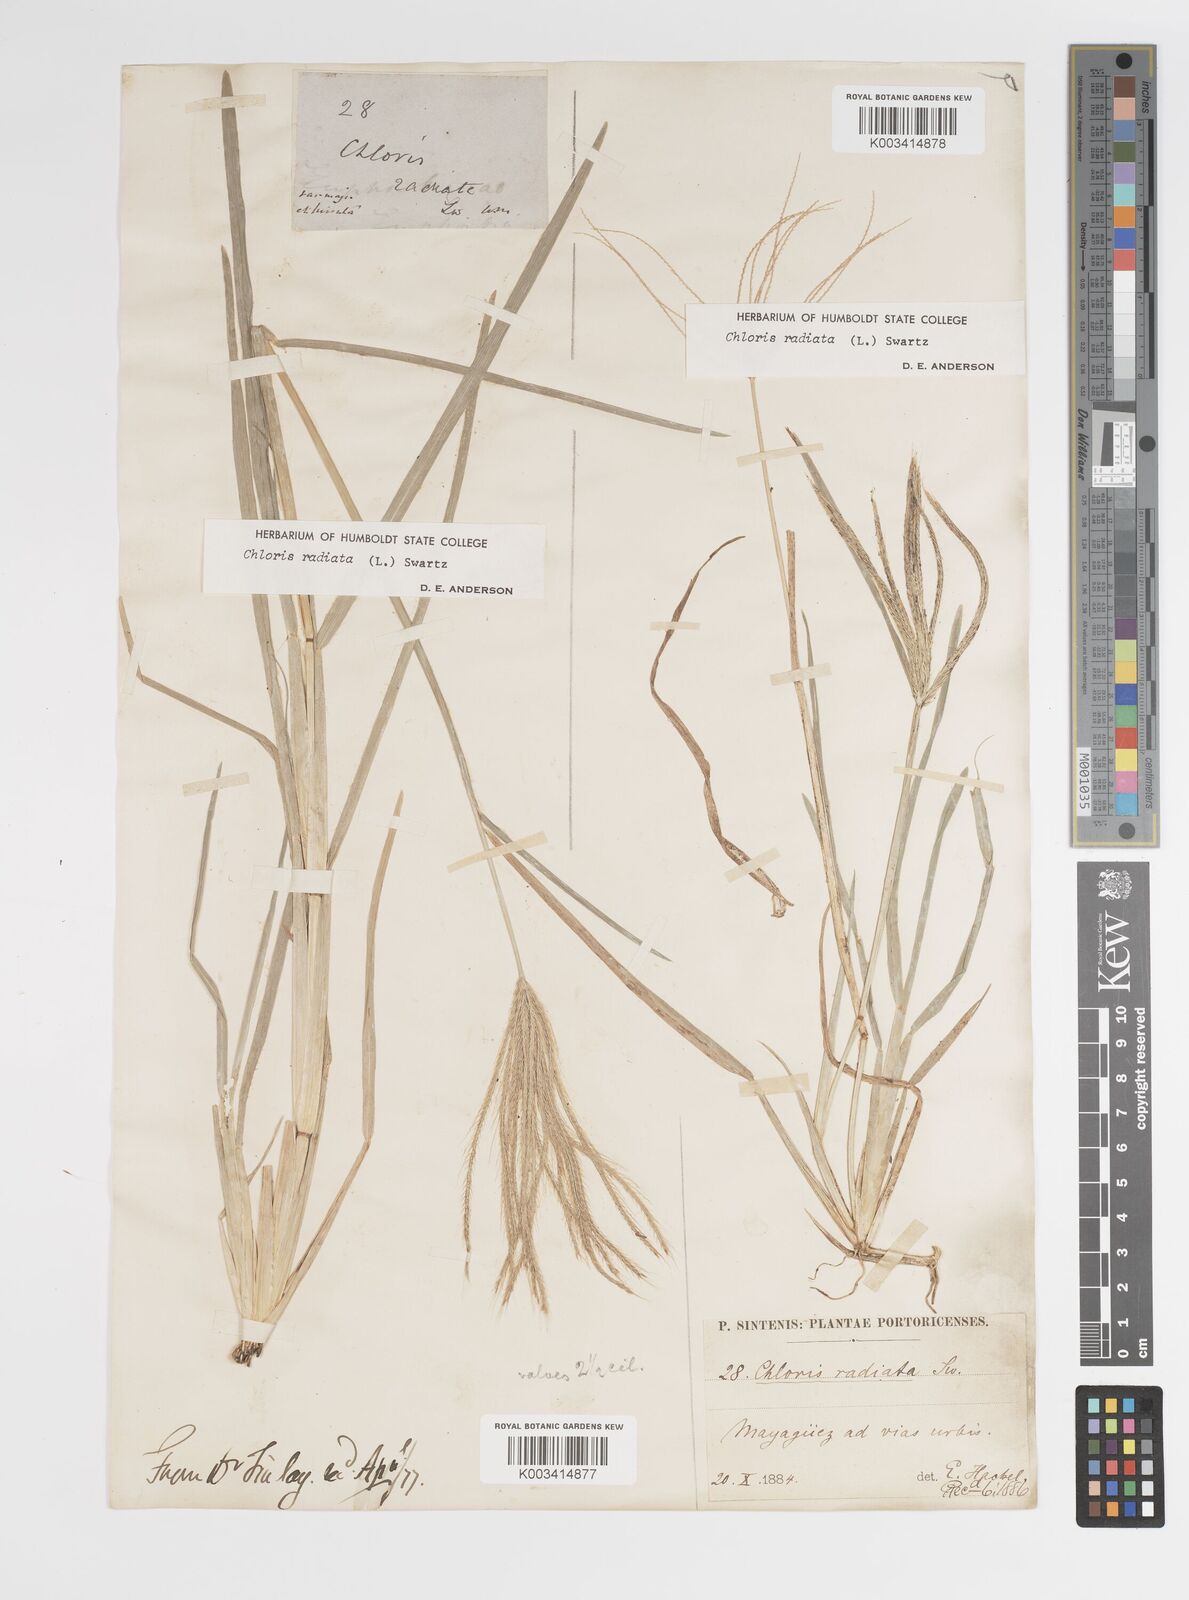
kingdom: Plantae
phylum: Tracheophyta
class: Liliopsida
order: Poales
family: Poaceae
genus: Chloris
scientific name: Chloris radiata
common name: Radiate fingergrass
